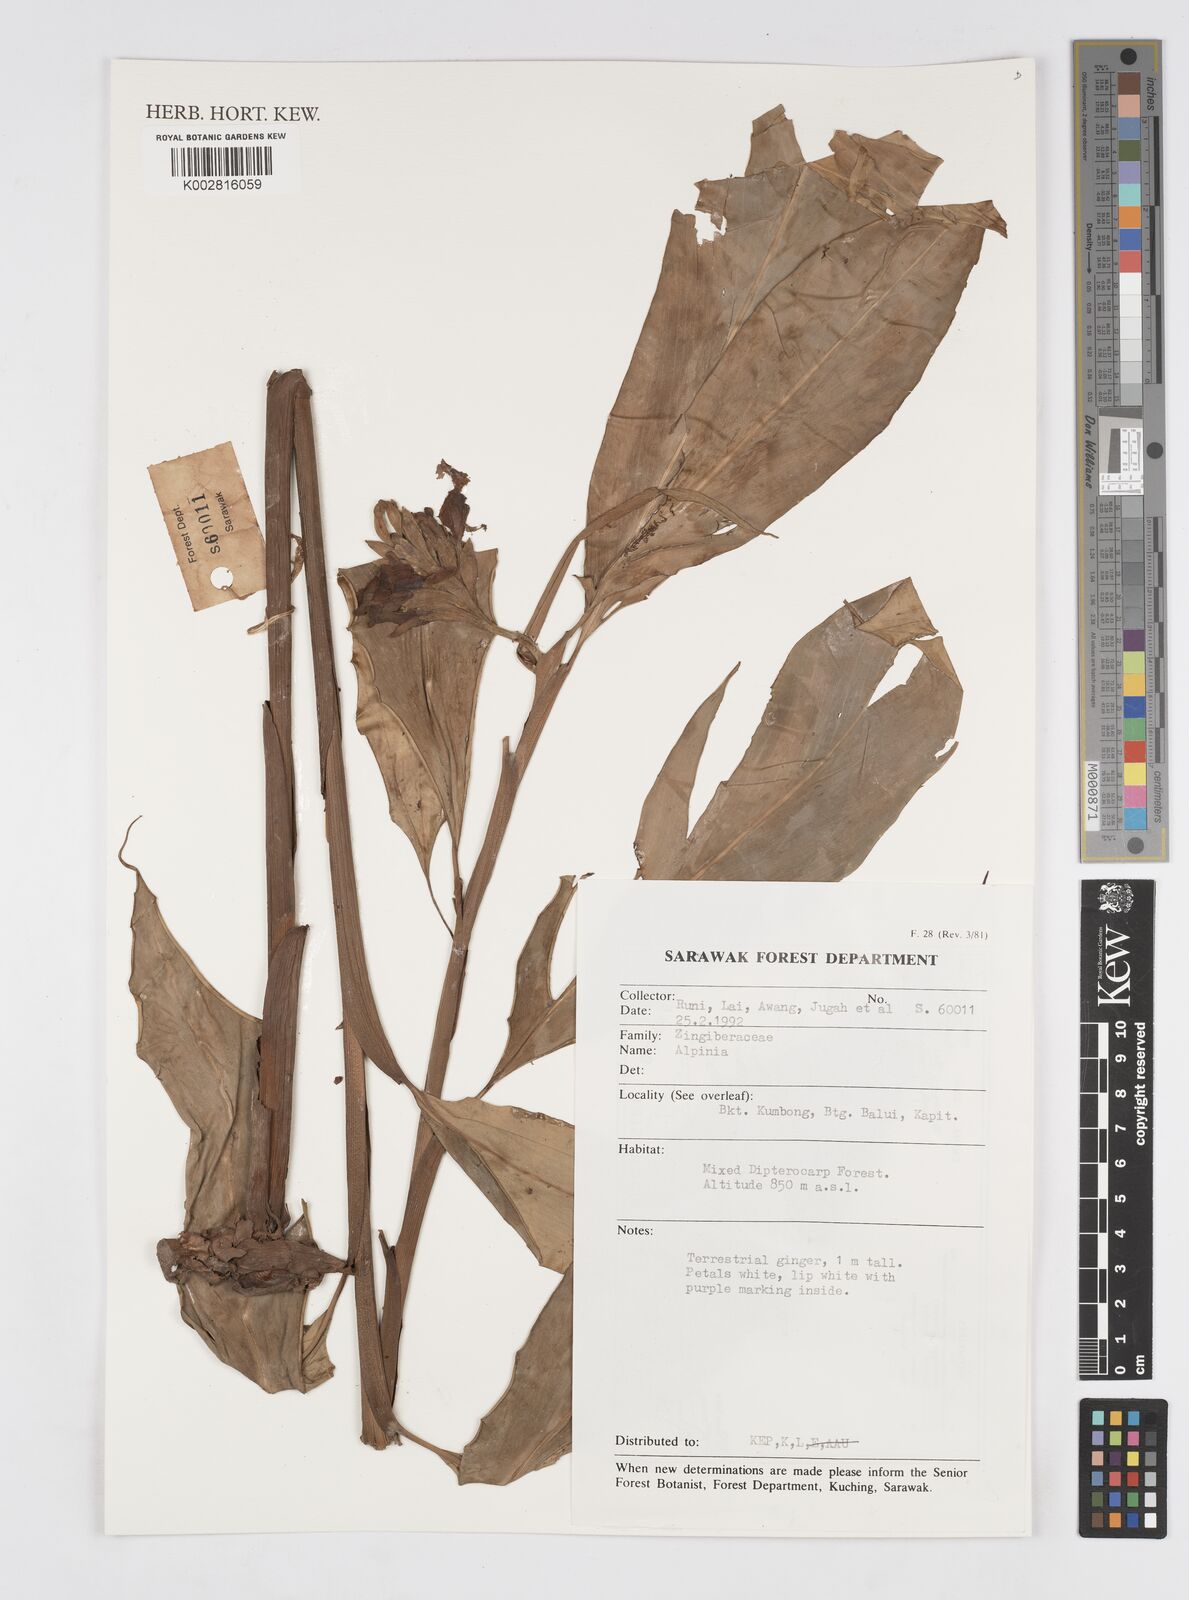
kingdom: Plantae
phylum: Tracheophyta
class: Liliopsida
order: Zingiberales
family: Zingiberaceae
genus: Alpinia
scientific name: Alpinia
